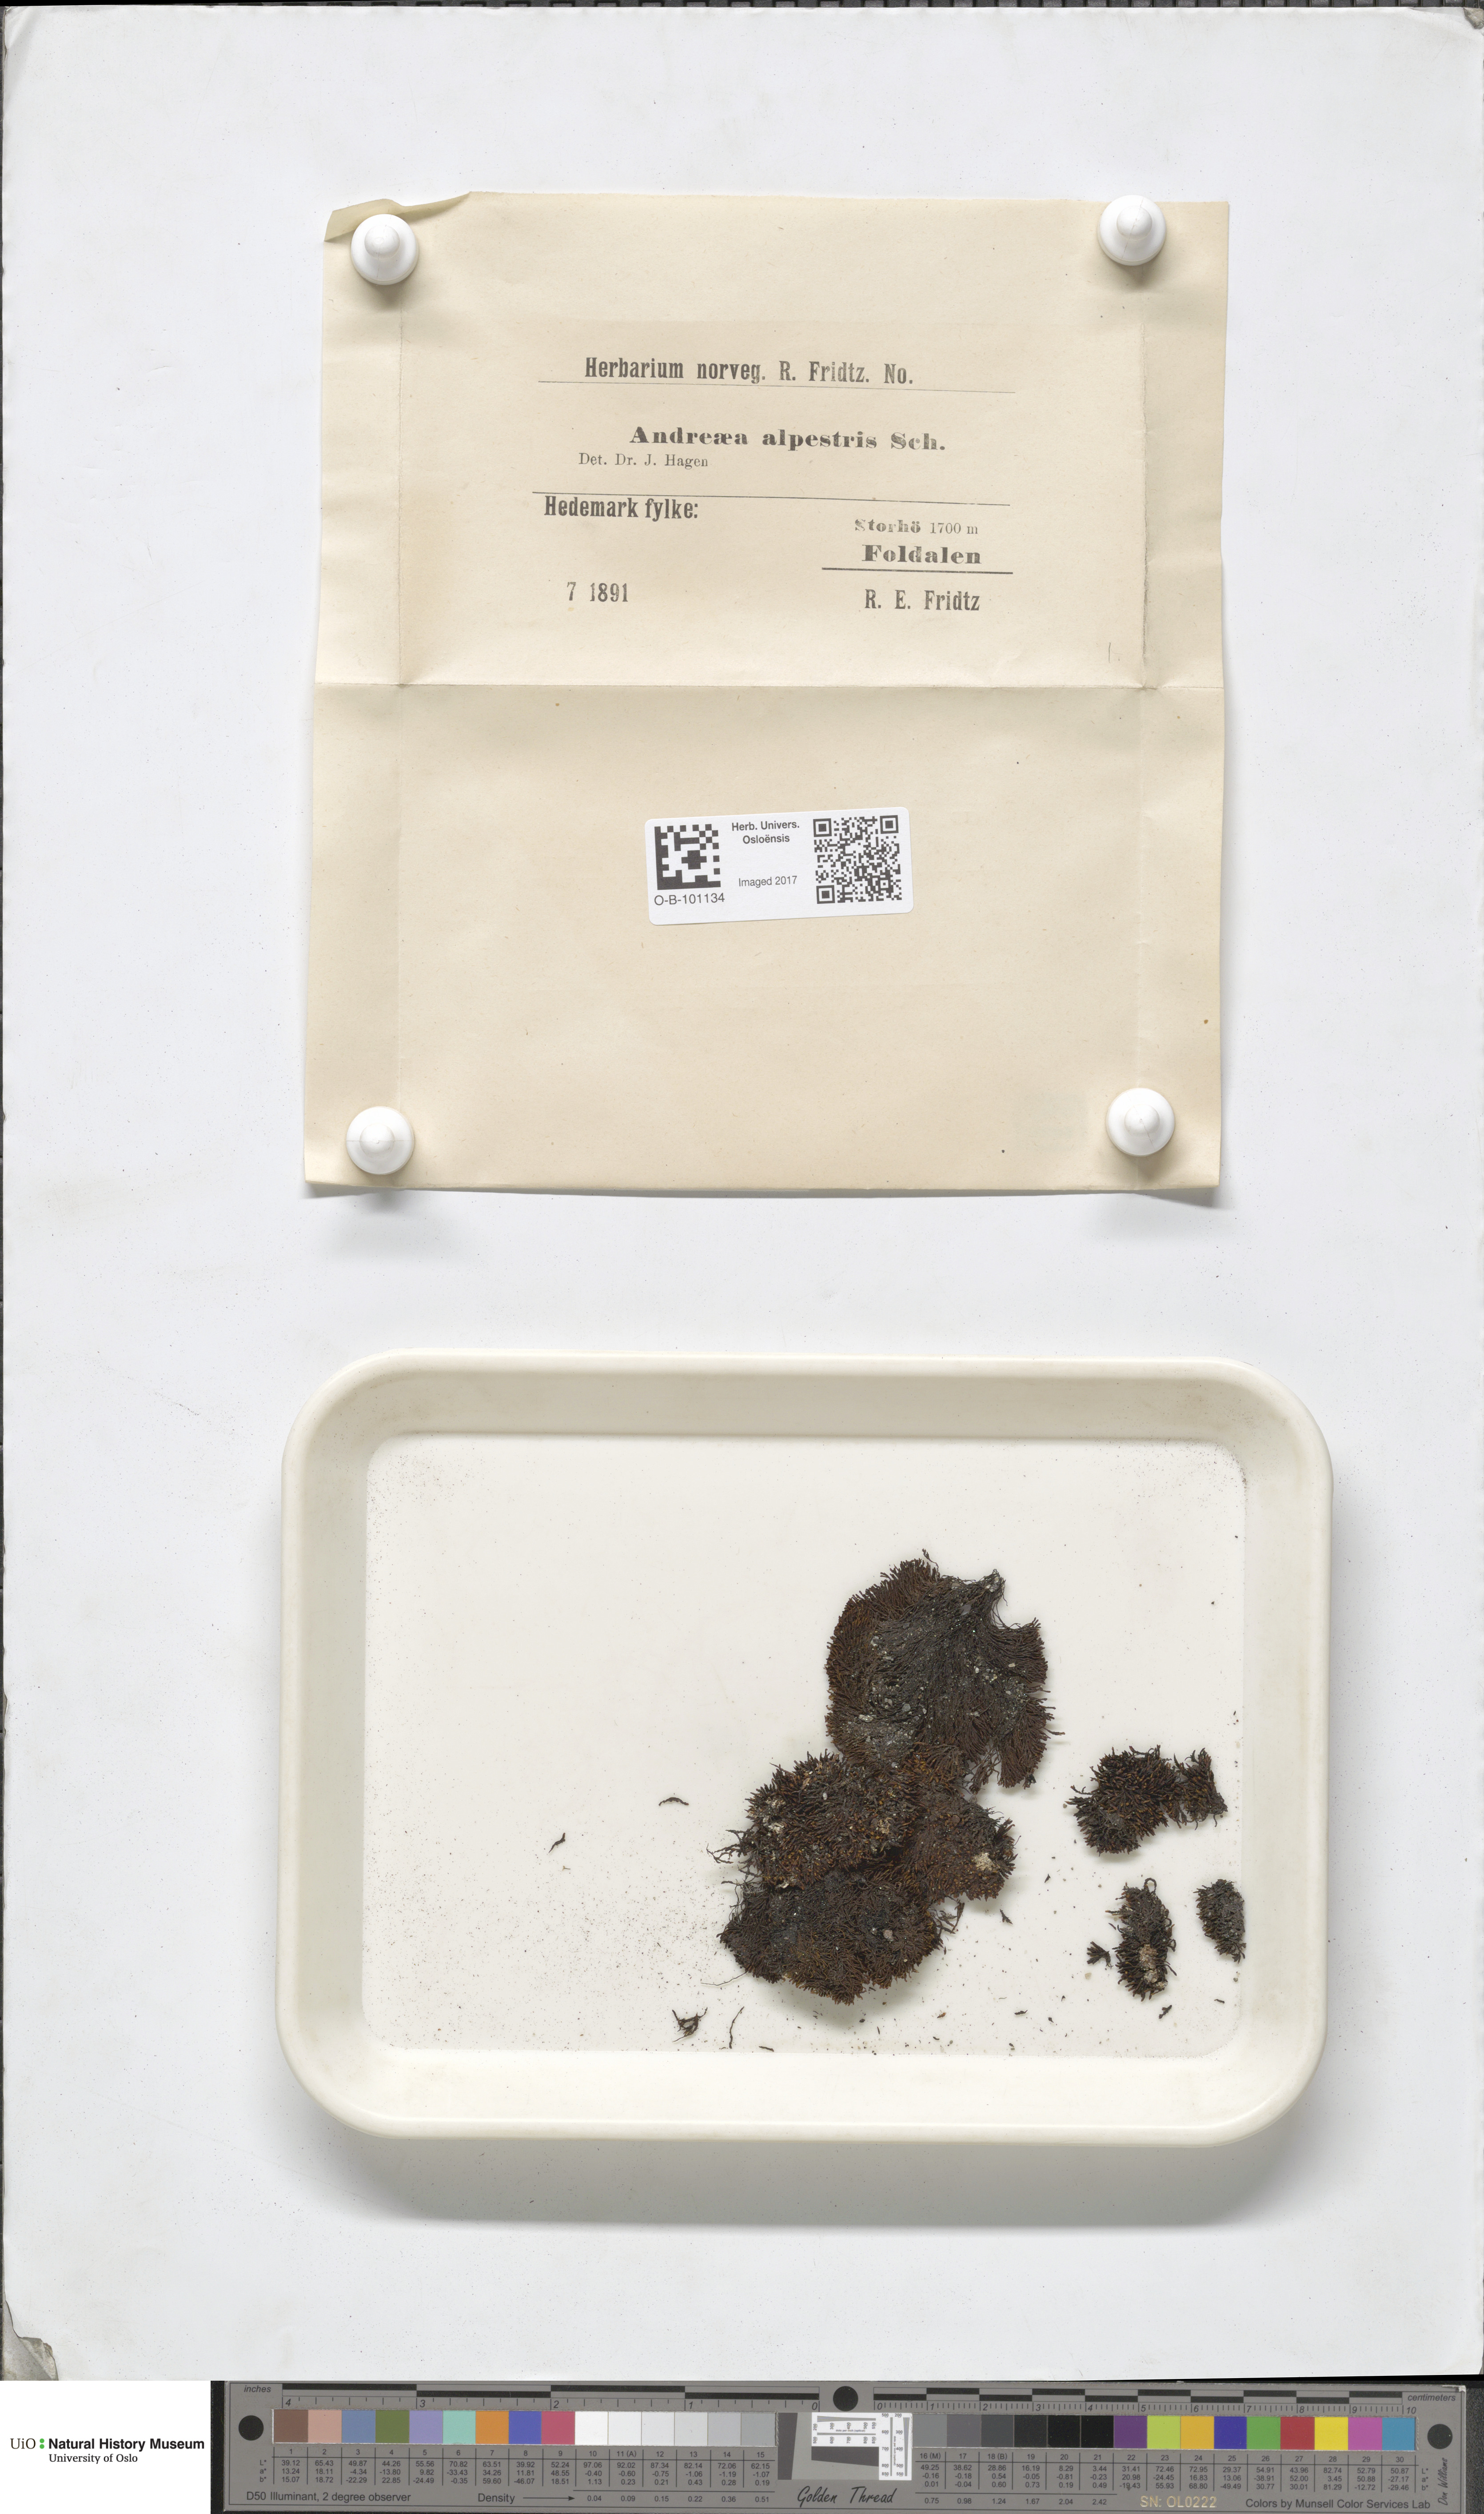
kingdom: Plantae
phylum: Bryophyta
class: Andreaeopsida
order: Andreaeales
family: Andreaeaceae
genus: Andreaea
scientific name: Andreaea alpestris
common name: Slender rock-moss
